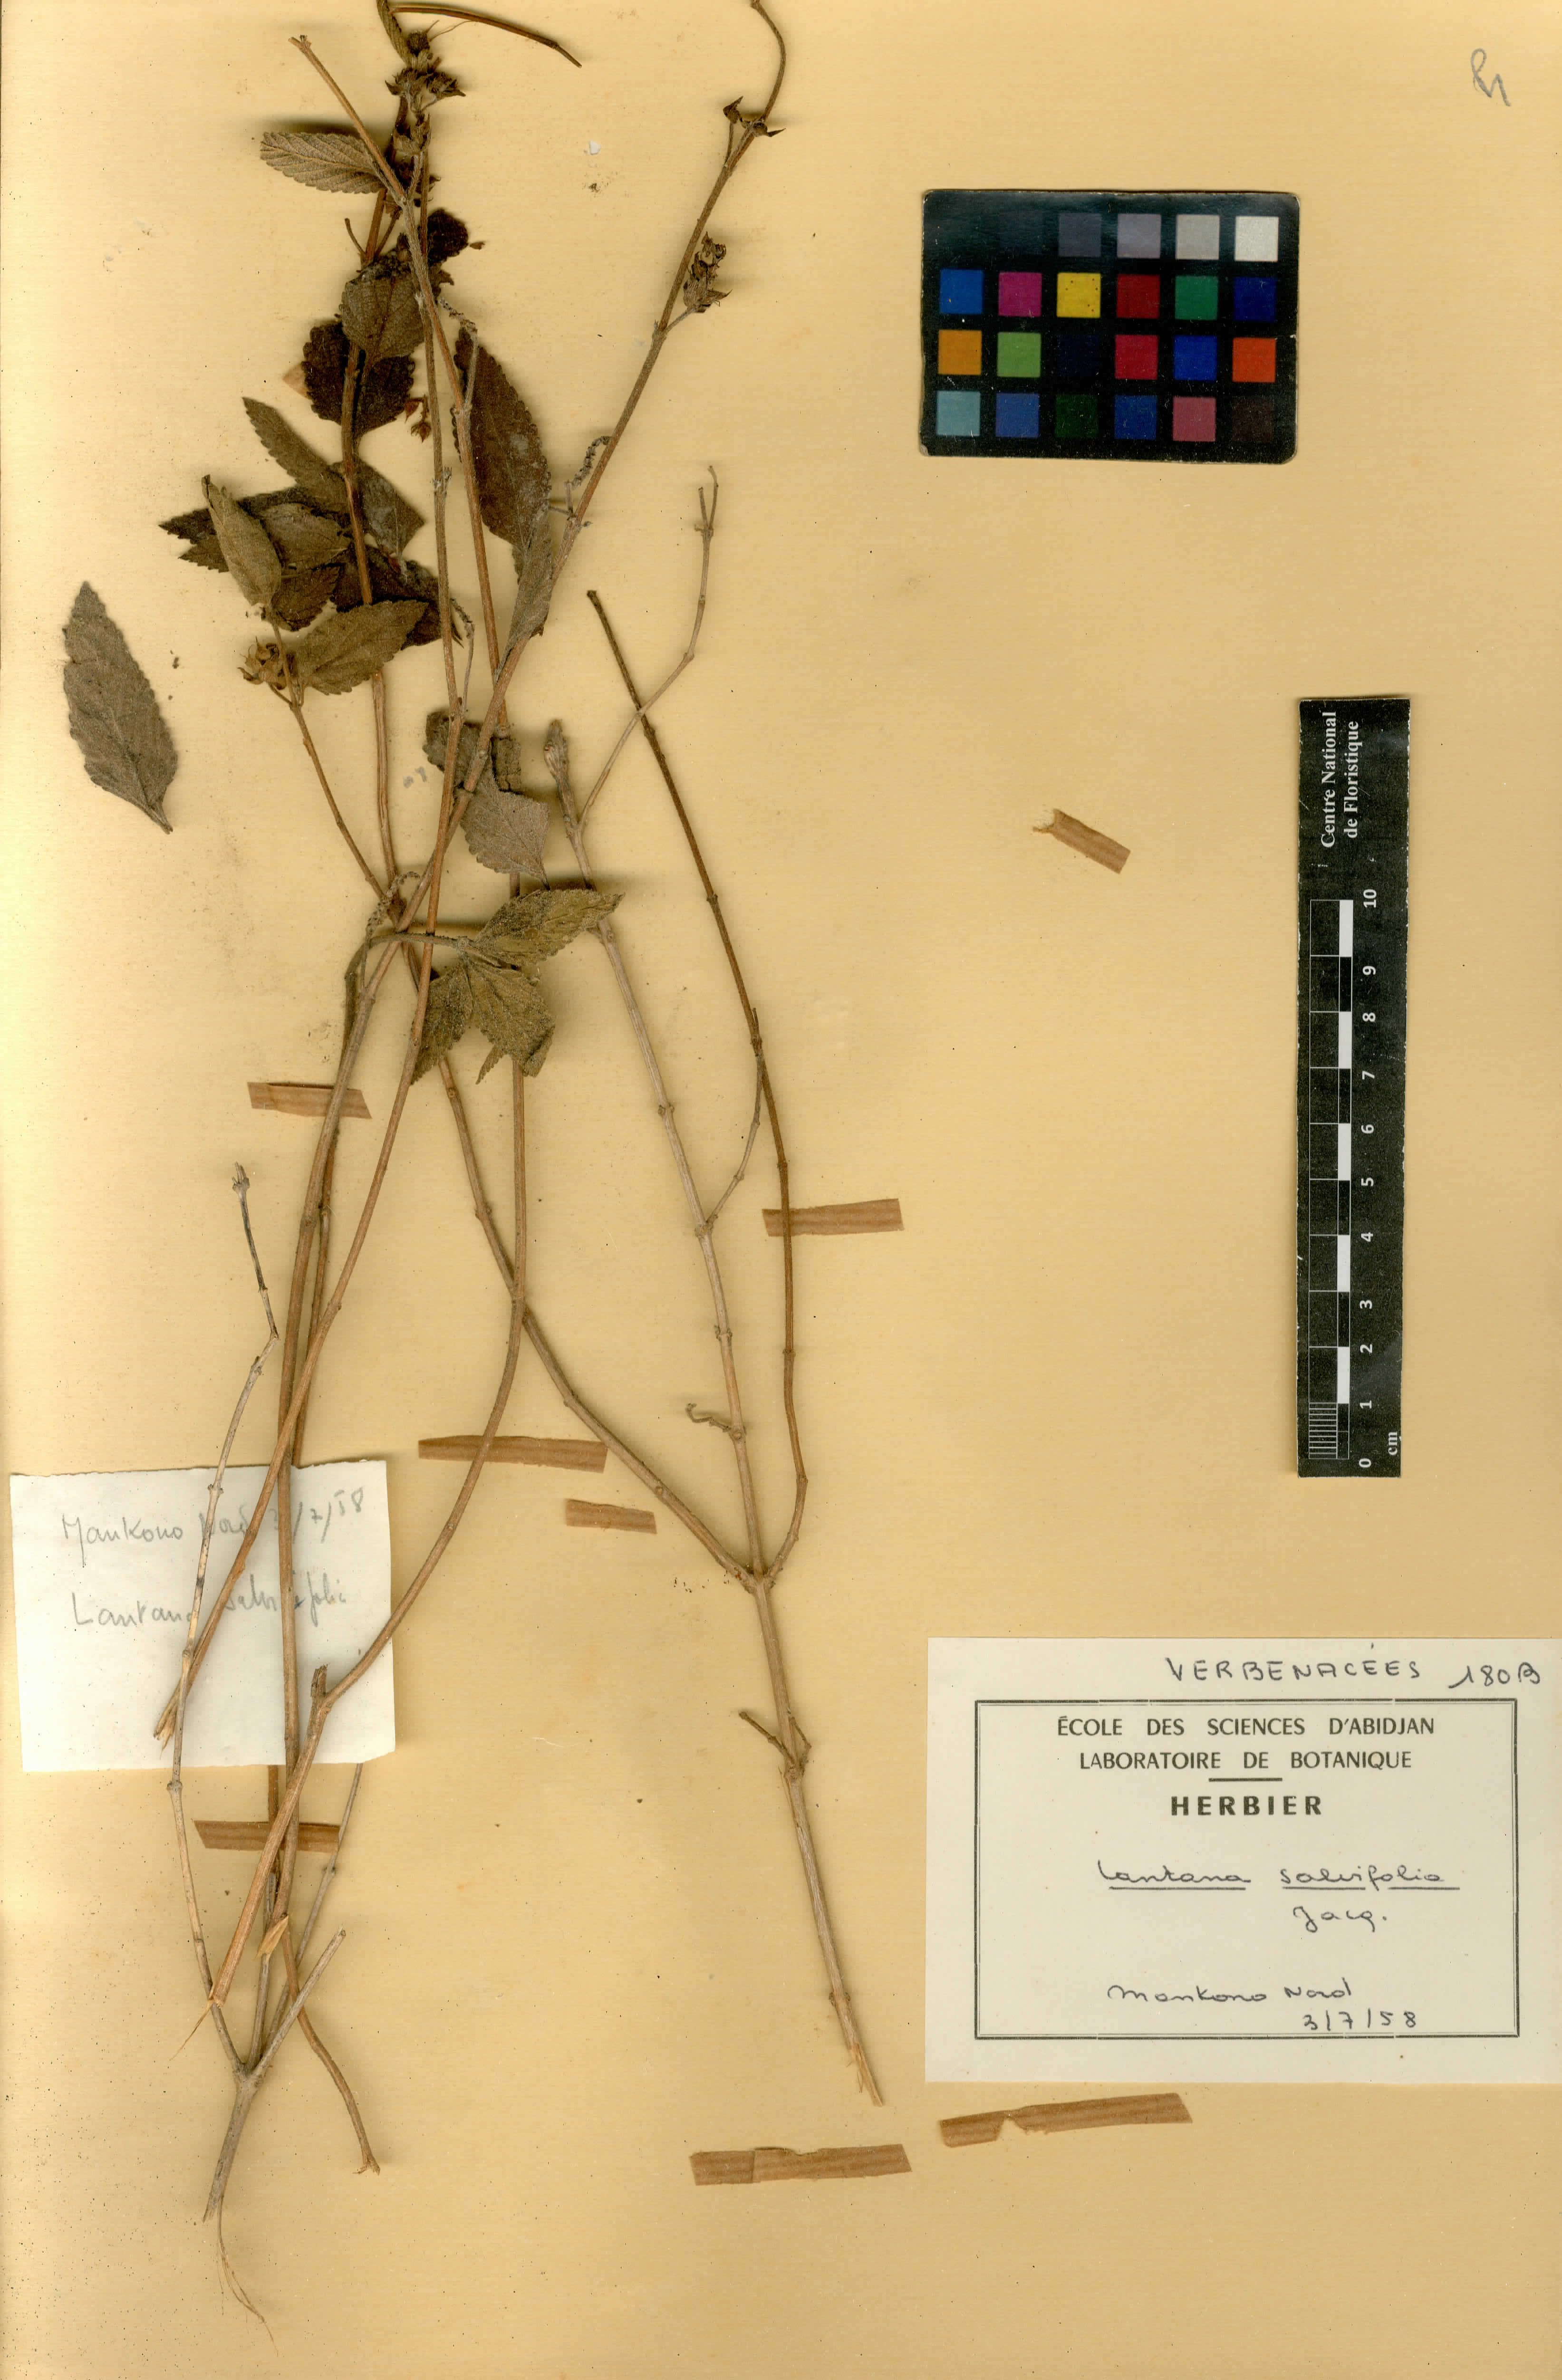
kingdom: Plantae
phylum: Tracheophyta
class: Magnoliopsida
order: Lamiales
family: Verbenaceae
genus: Lantana
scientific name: Lantana rugosa
